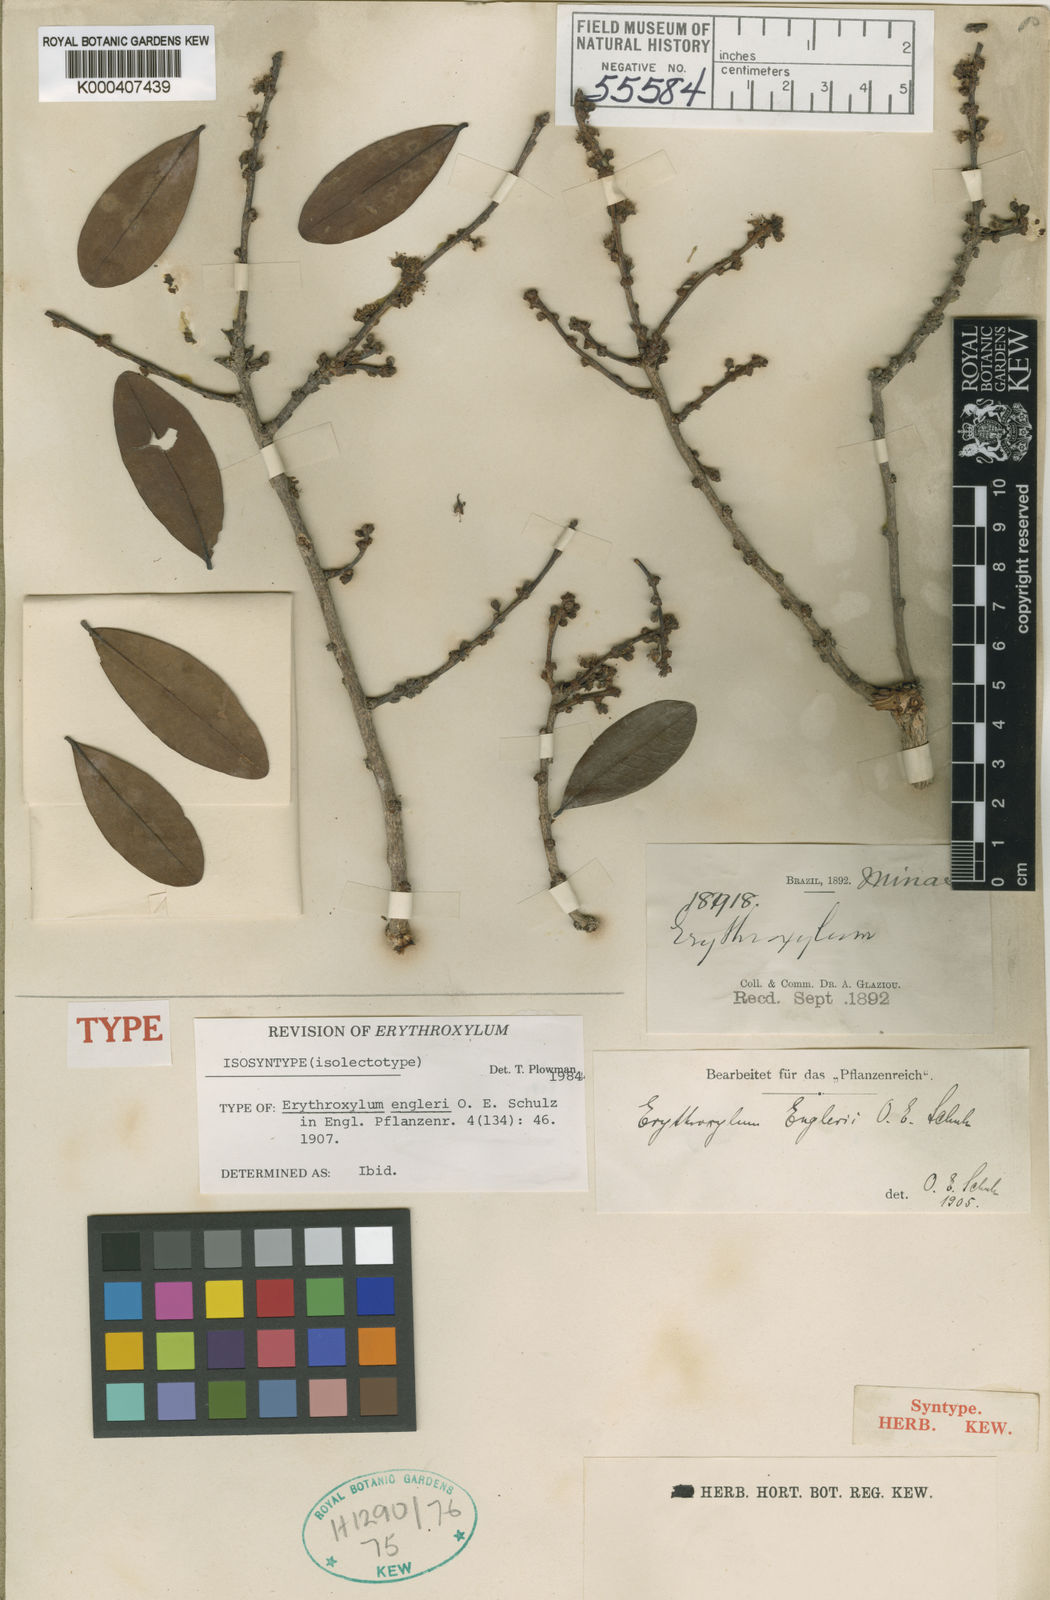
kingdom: Plantae
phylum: Tracheophyta
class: Magnoliopsida
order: Malpighiales
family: Erythroxylaceae
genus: Erythroxylum
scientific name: Erythroxylum engleri
